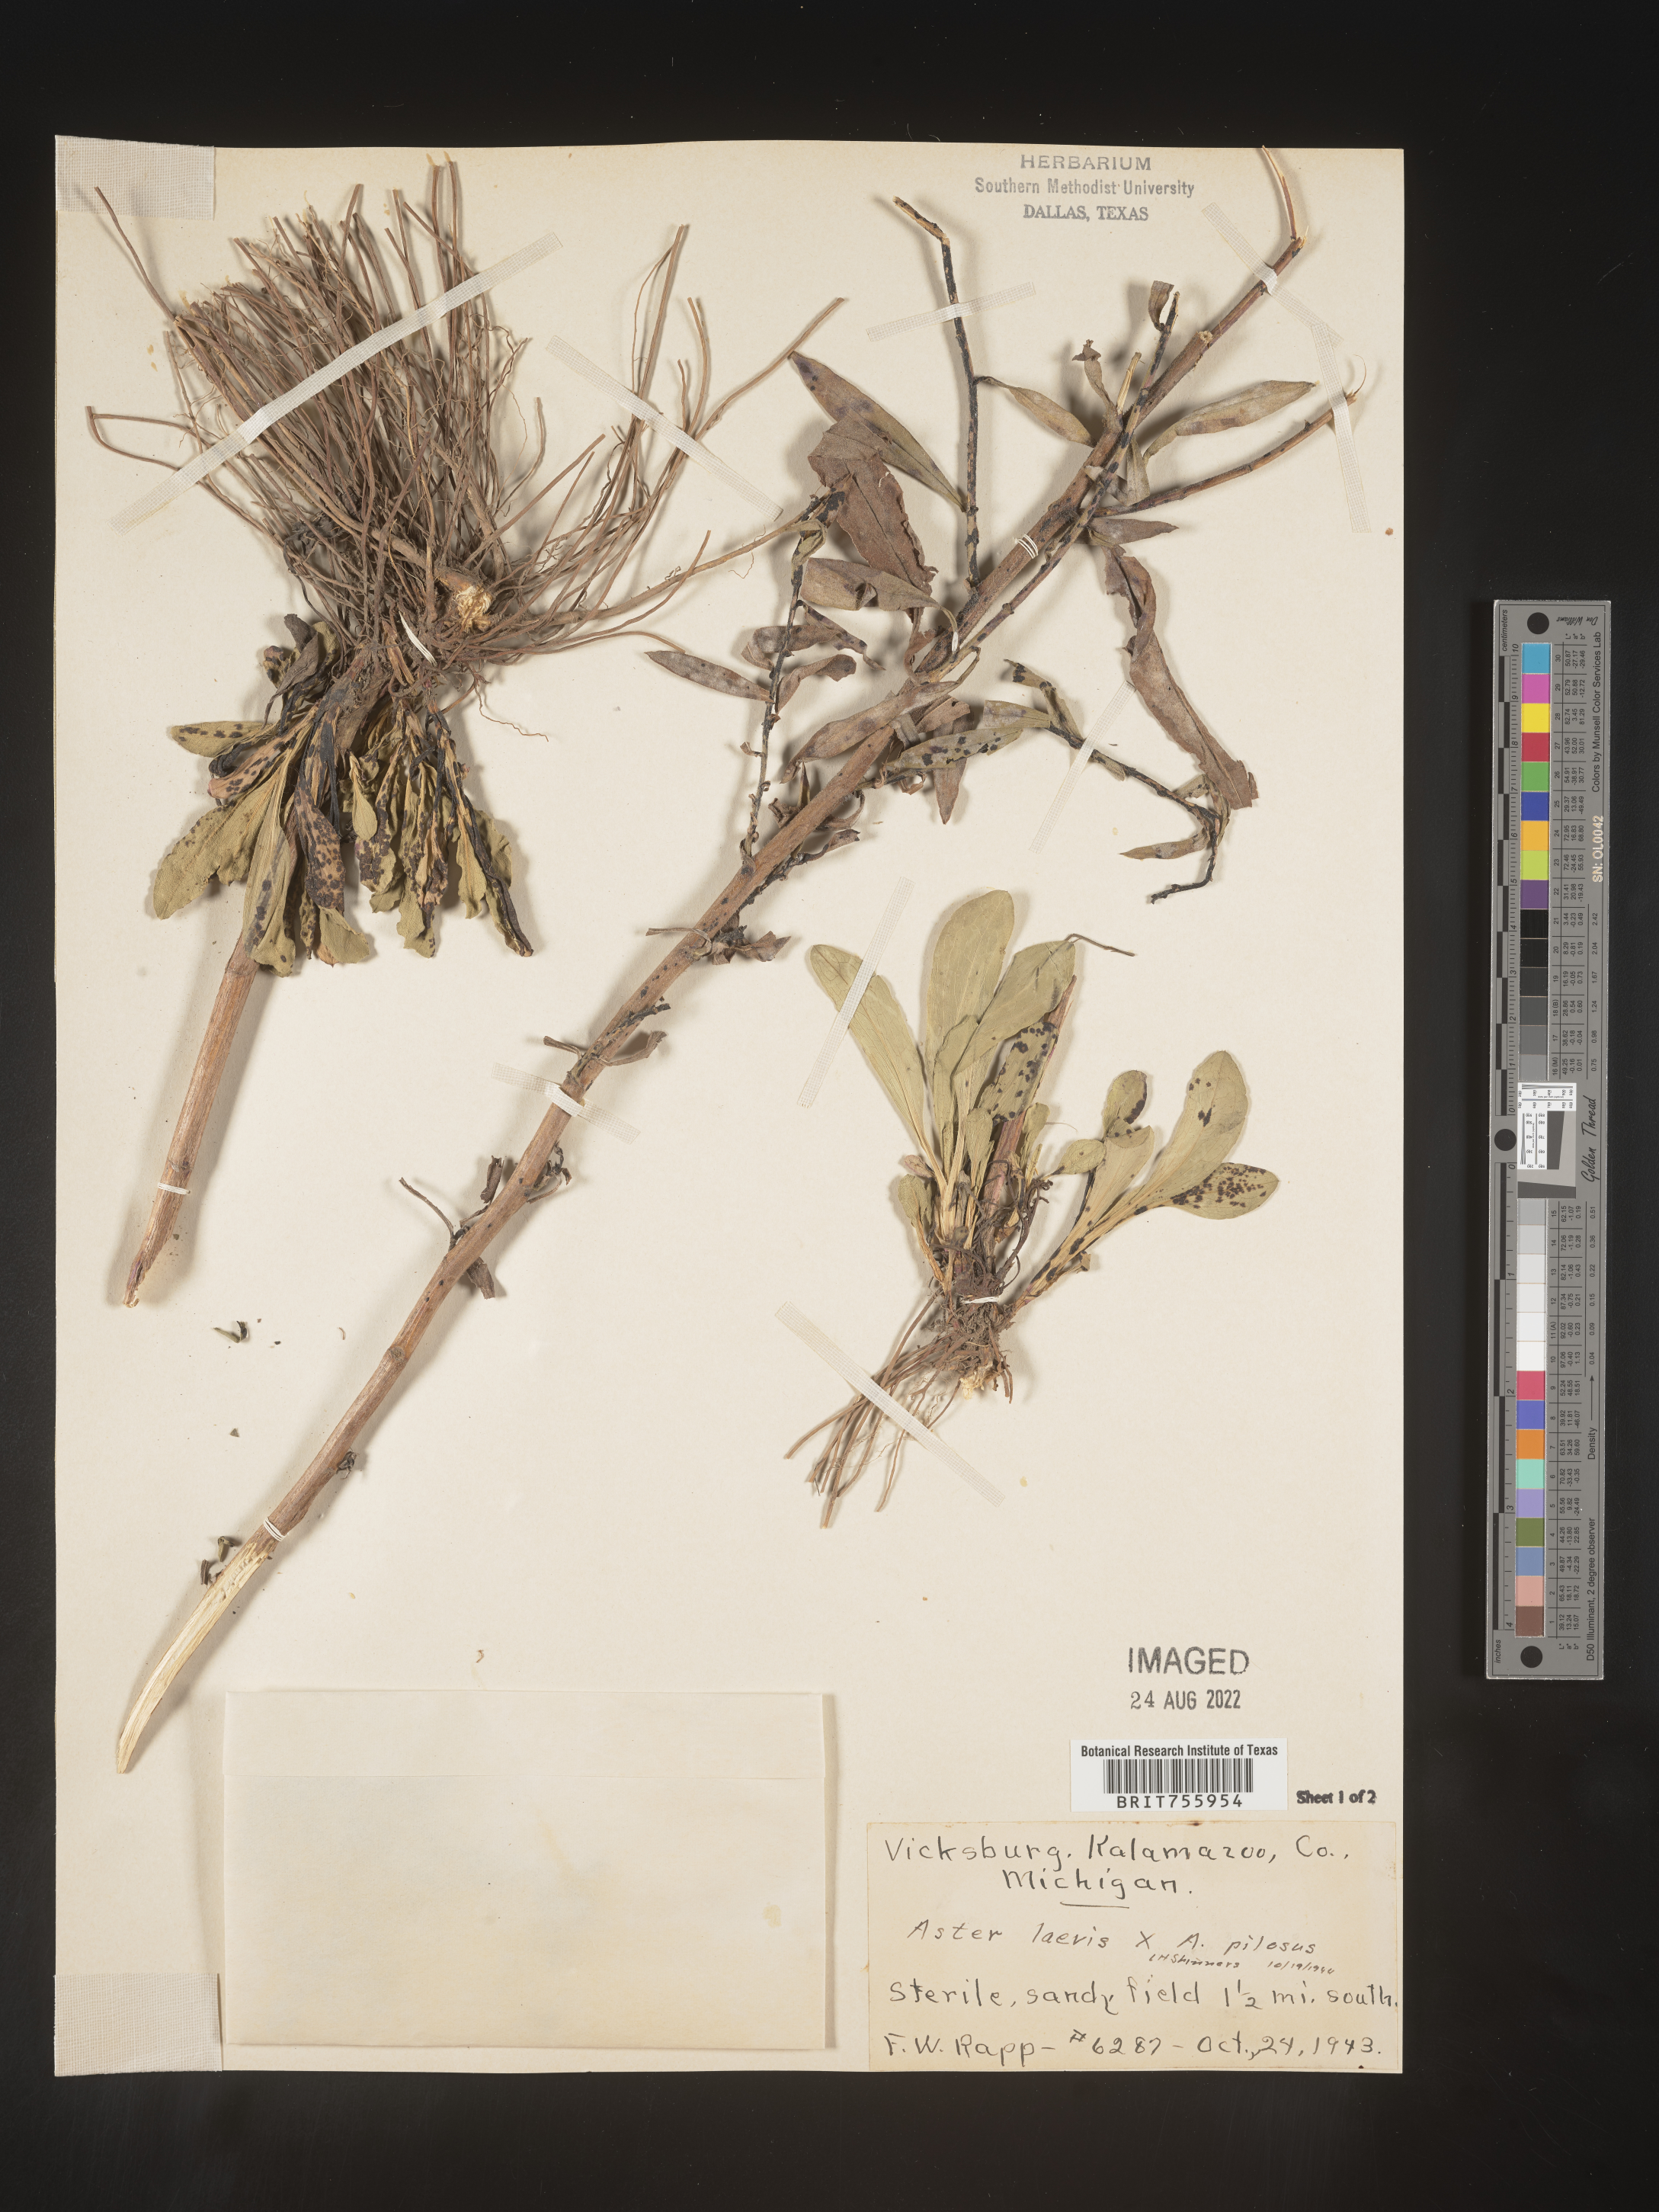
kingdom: Plantae
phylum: Tracheophyta
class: Magnoliopsida
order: Asterales
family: Asteraceae
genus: Symphyotrichum
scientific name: Symphyotrichum
